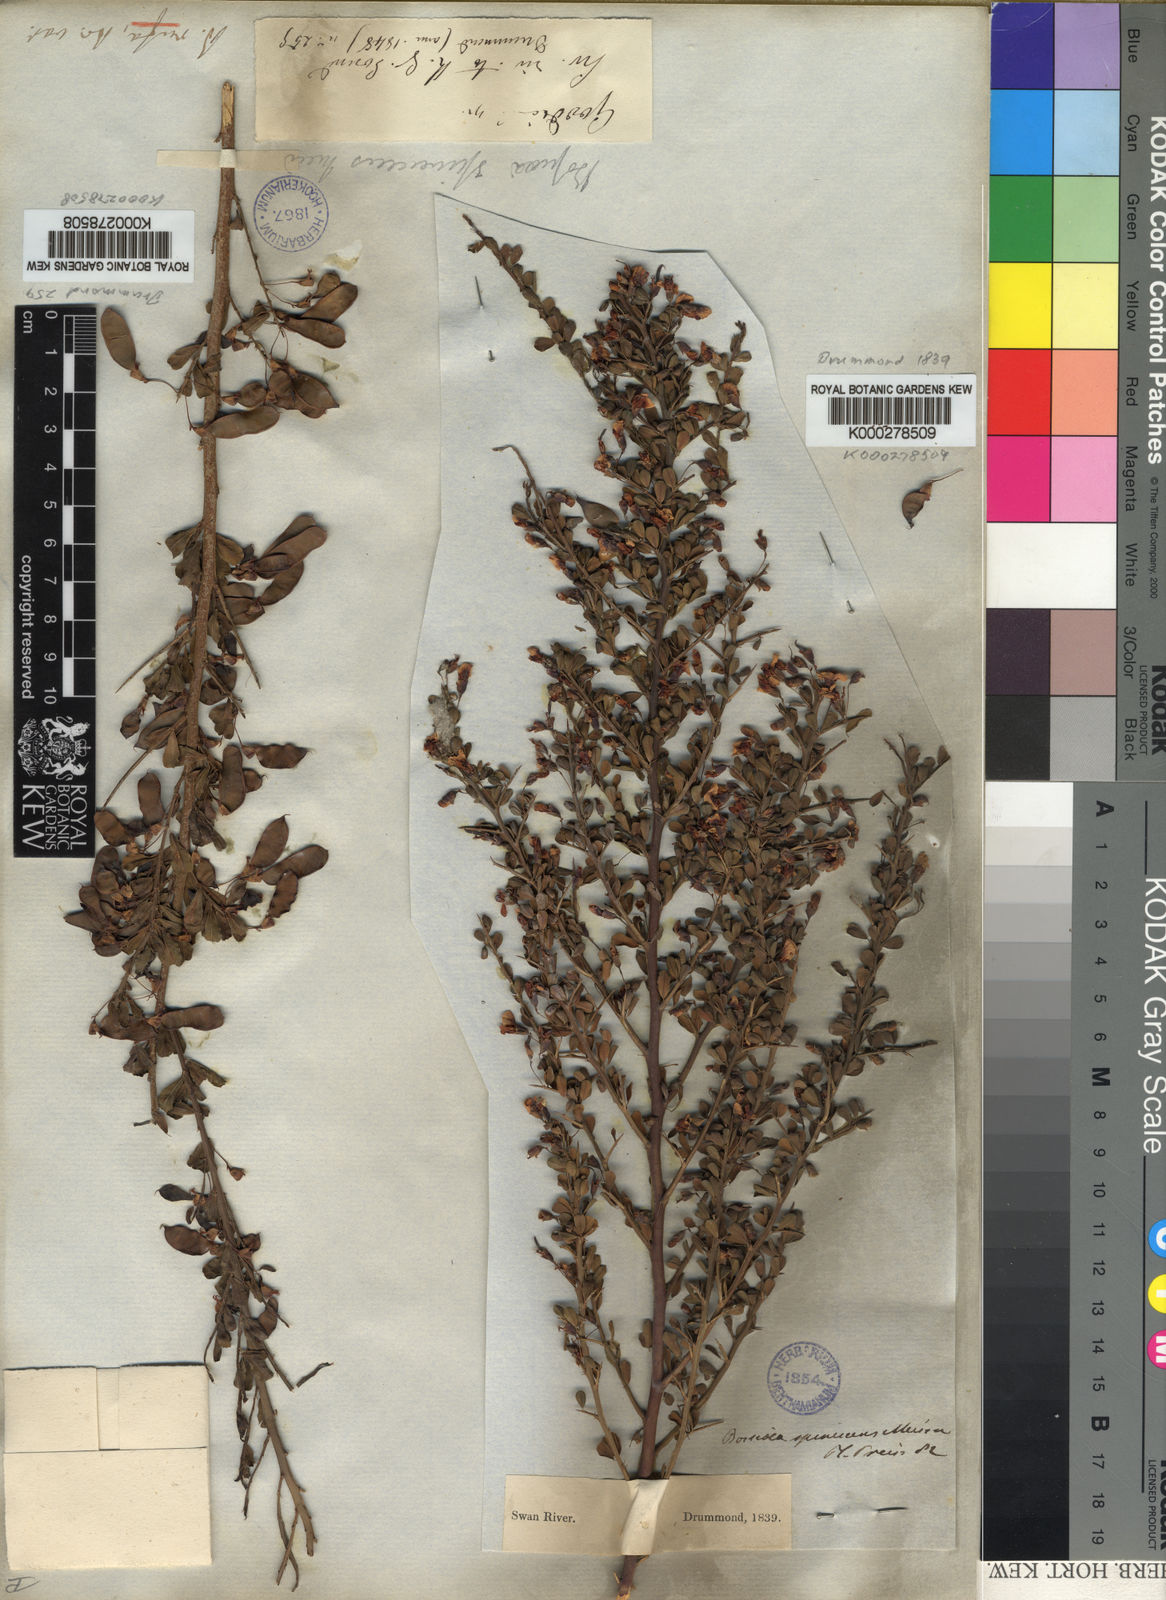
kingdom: Plantae
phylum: Tracheophyta
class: Magnoliopsida
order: Fabales
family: Fabaceae
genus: Bossiaea
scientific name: Bossiaea spinescens
